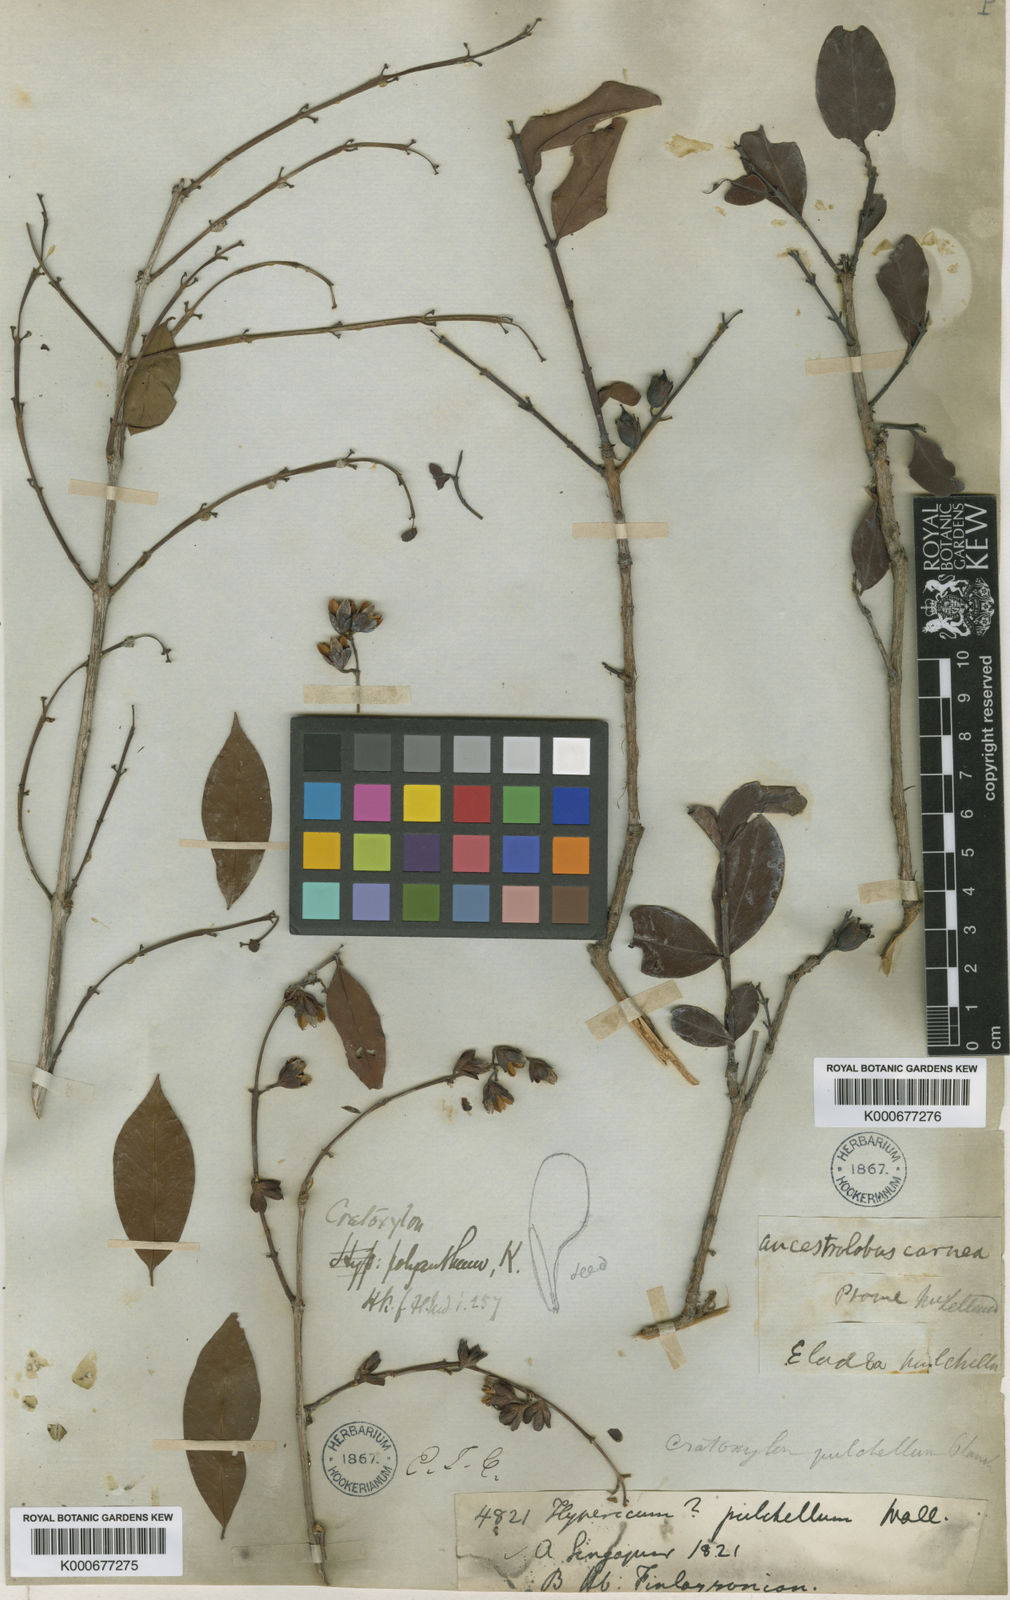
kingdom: Plantae
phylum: Tracheophyta
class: Magnoliopsida
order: Malpighiales
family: Hypericaceae
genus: Cratoxylum
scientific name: Cratoxylum cochinchinense
